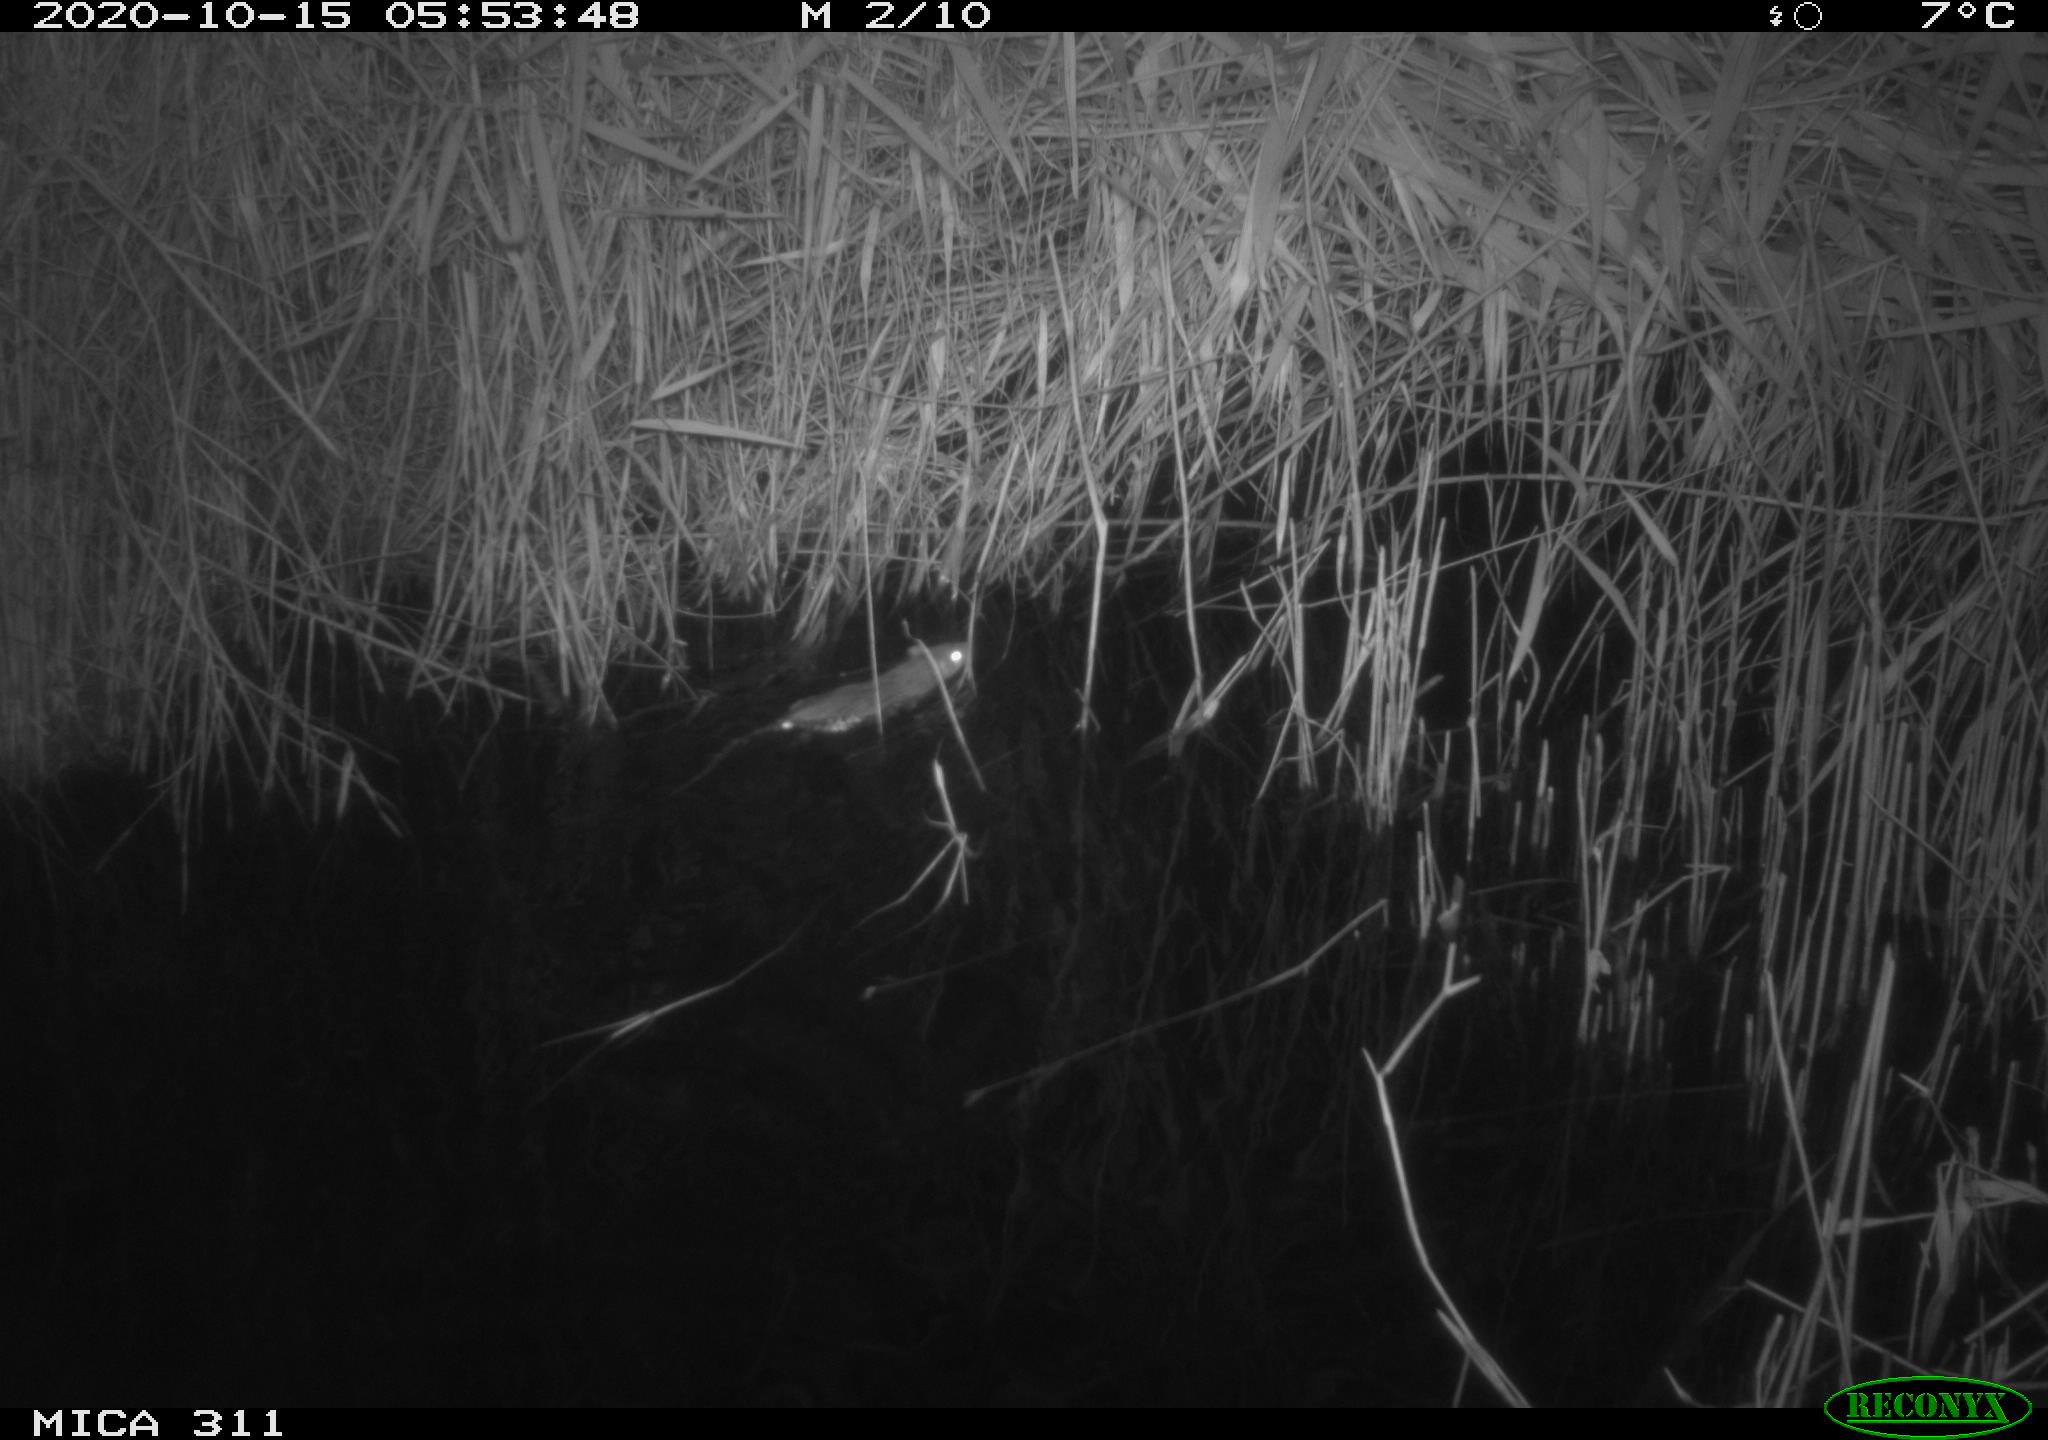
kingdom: Animalia
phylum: Chordata
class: Mammalia
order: Rodentia
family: Muridae
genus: Rattus
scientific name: Rattus norvegicus
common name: Brown rat
